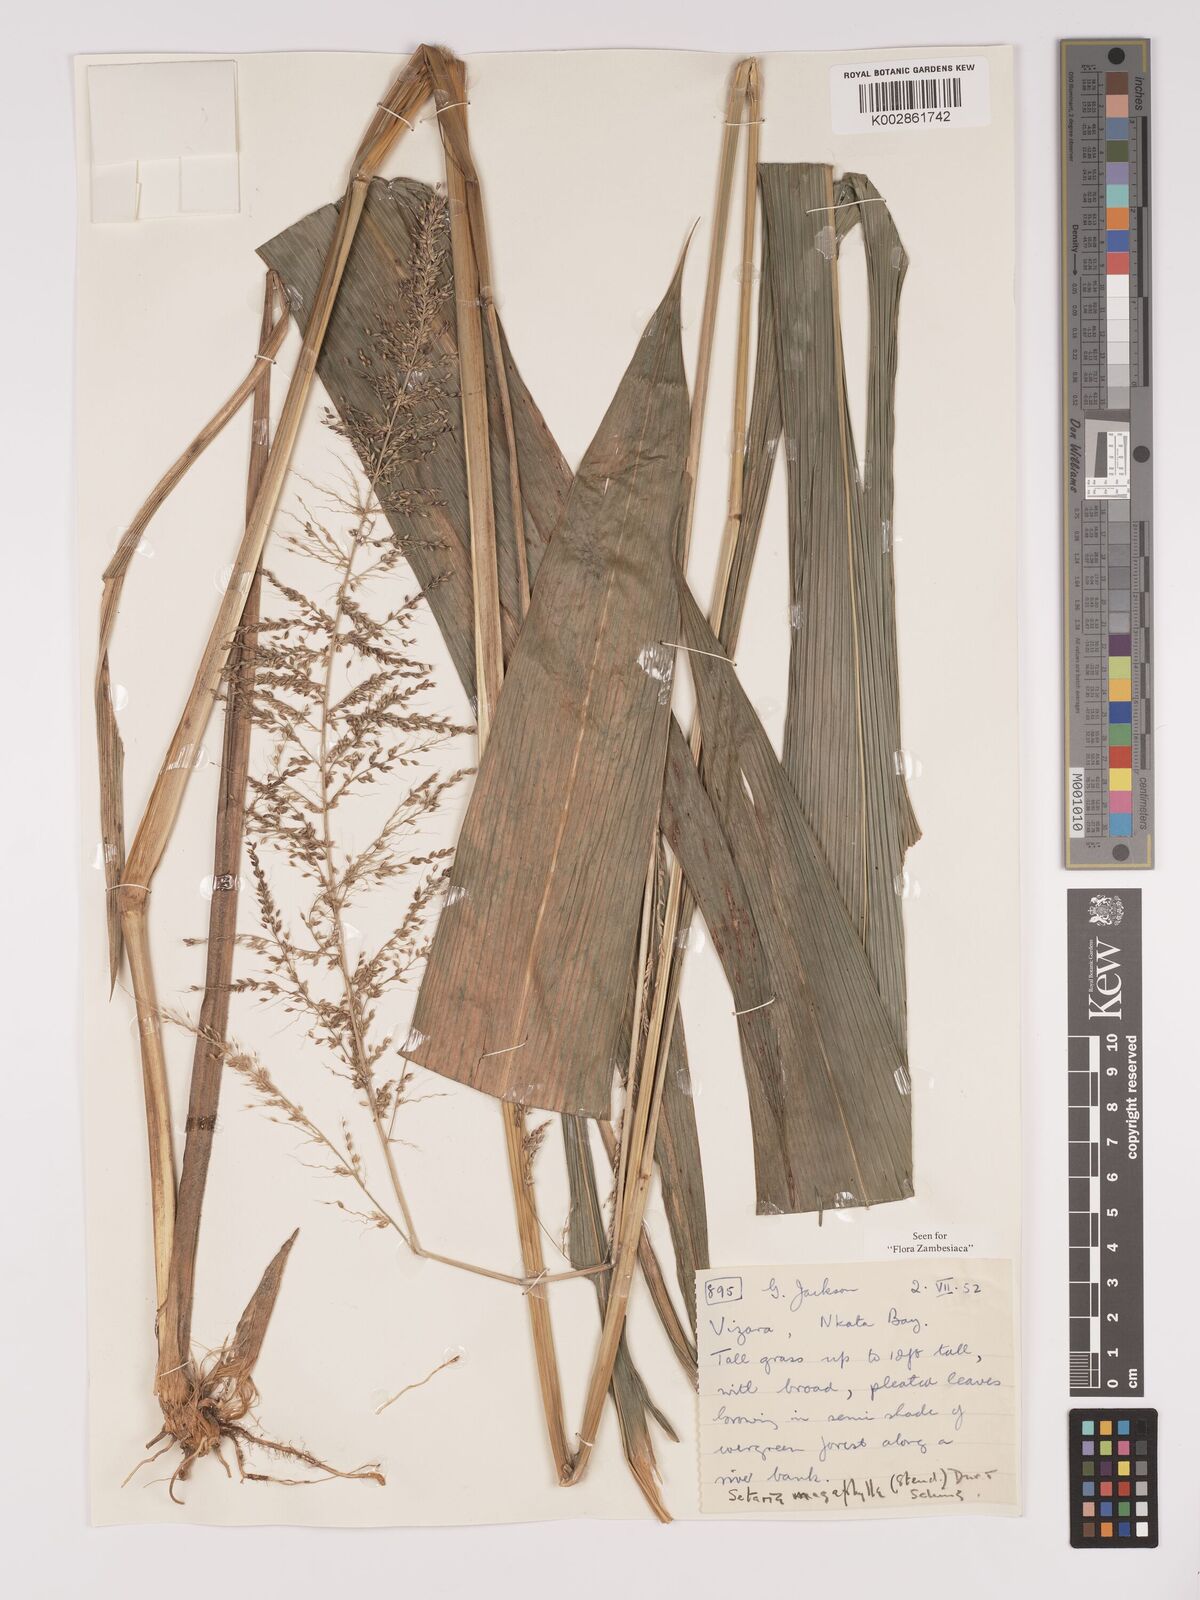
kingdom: Plantae
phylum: Tracheophyta
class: Liliopsida
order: Poales
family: Poaceae
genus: Setaria
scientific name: Setaria megaphylla
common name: Bigleaf bristlegrass
